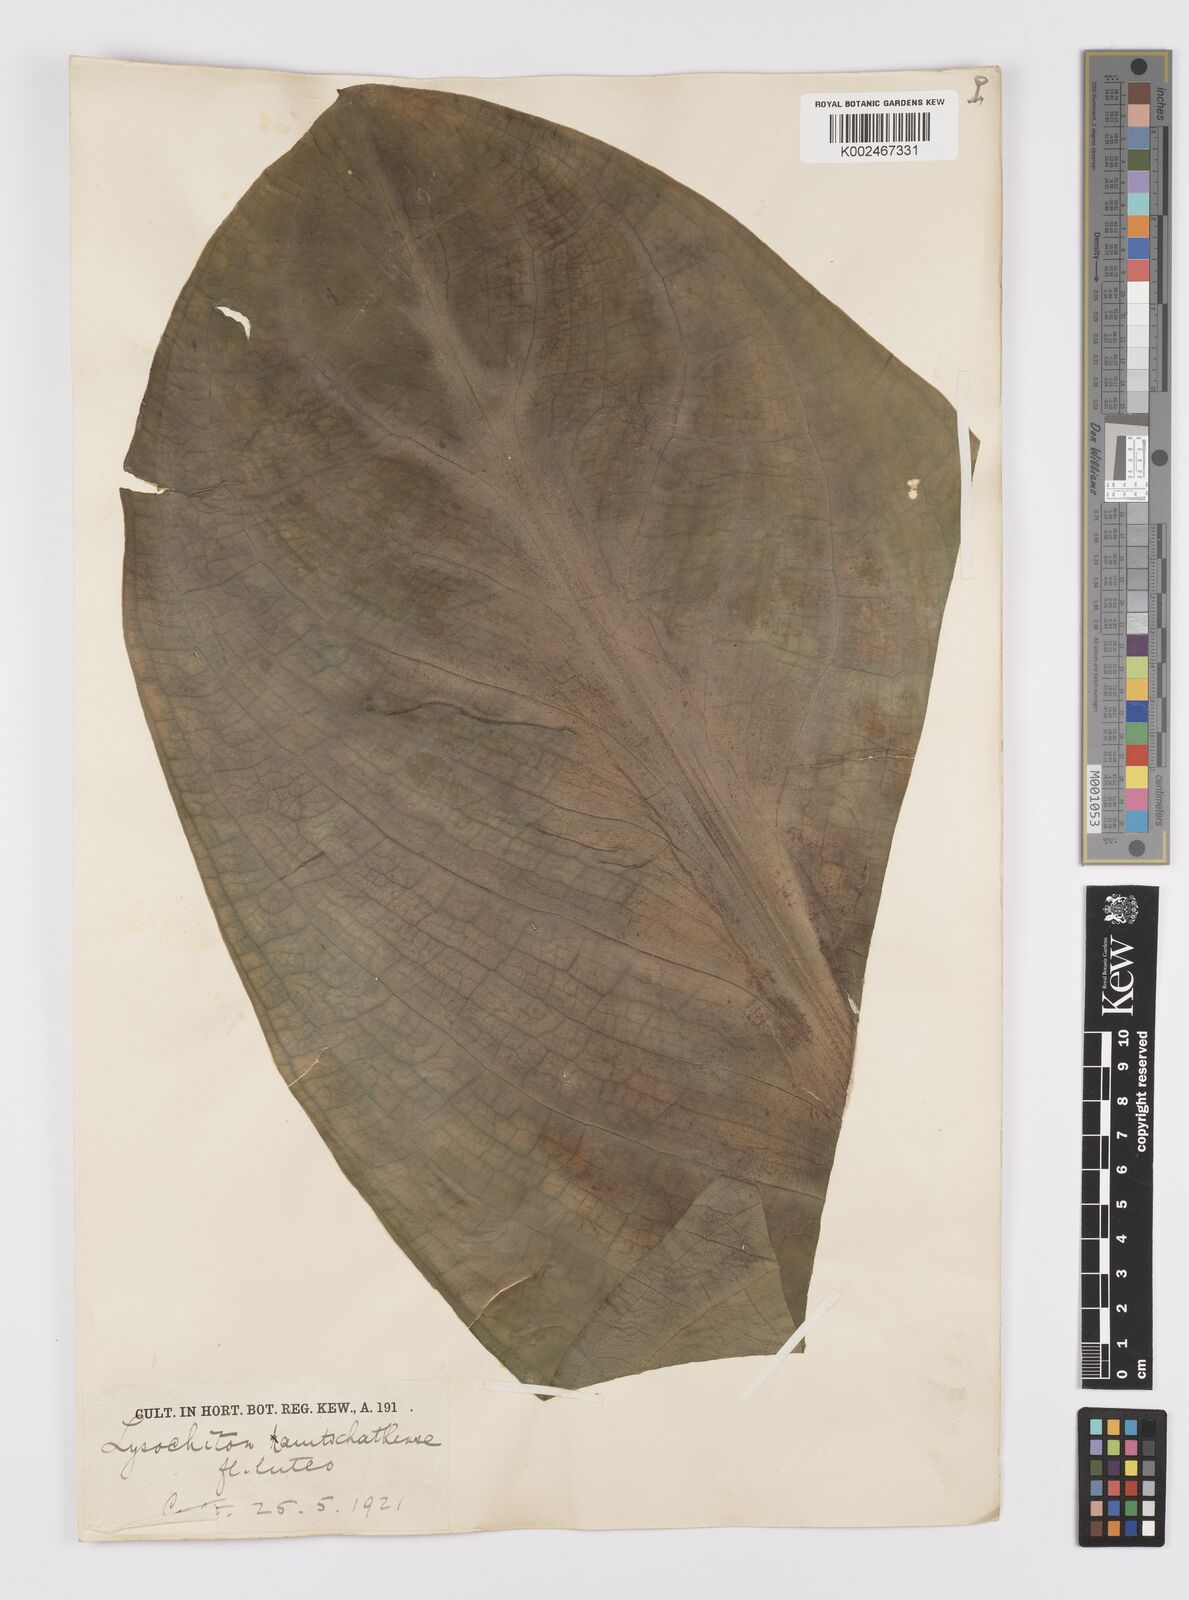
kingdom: Plantae
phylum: Tracheophyta
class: Liliopsida
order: Alismatales
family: Araceae
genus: Lysichiton
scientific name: Lysichiton americanus
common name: American skunk cabbage
